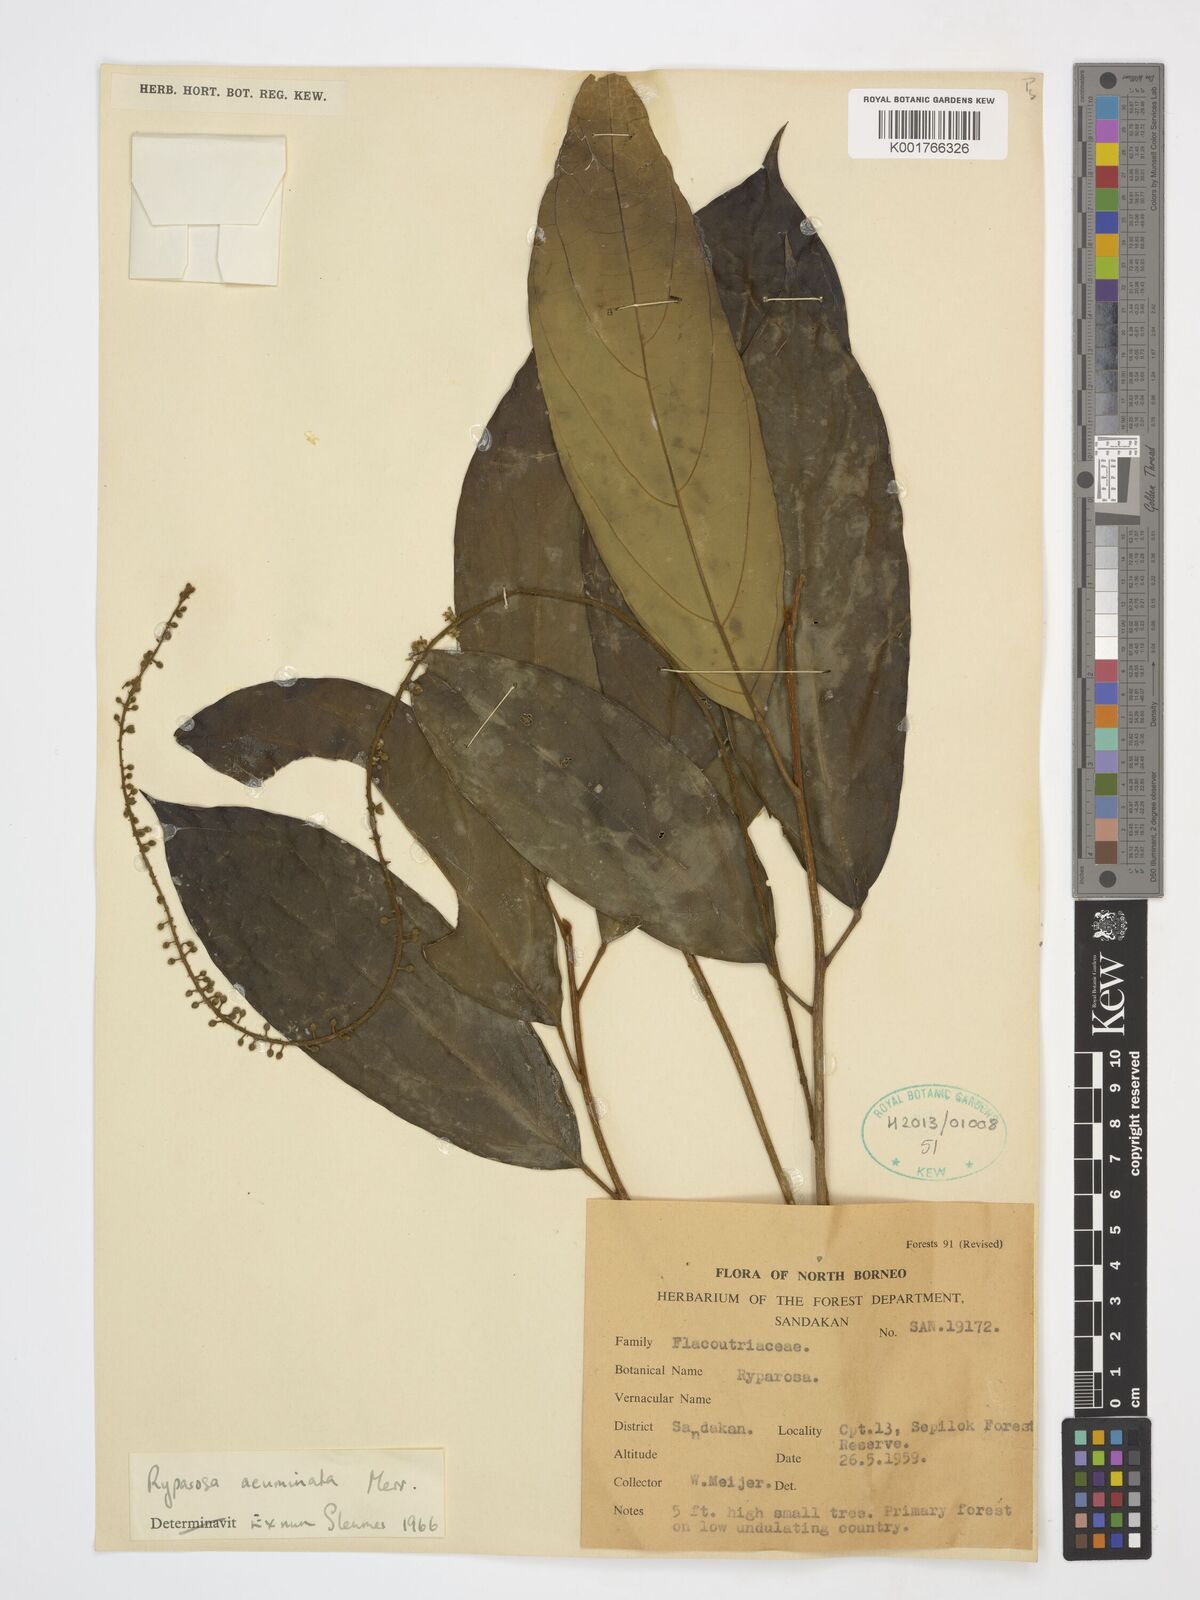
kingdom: Plantae
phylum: Tracheophyta
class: Magnoliopsida
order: Malpighiales
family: Achariaceae
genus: Ryparosa
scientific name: Ryparosa acuminata
